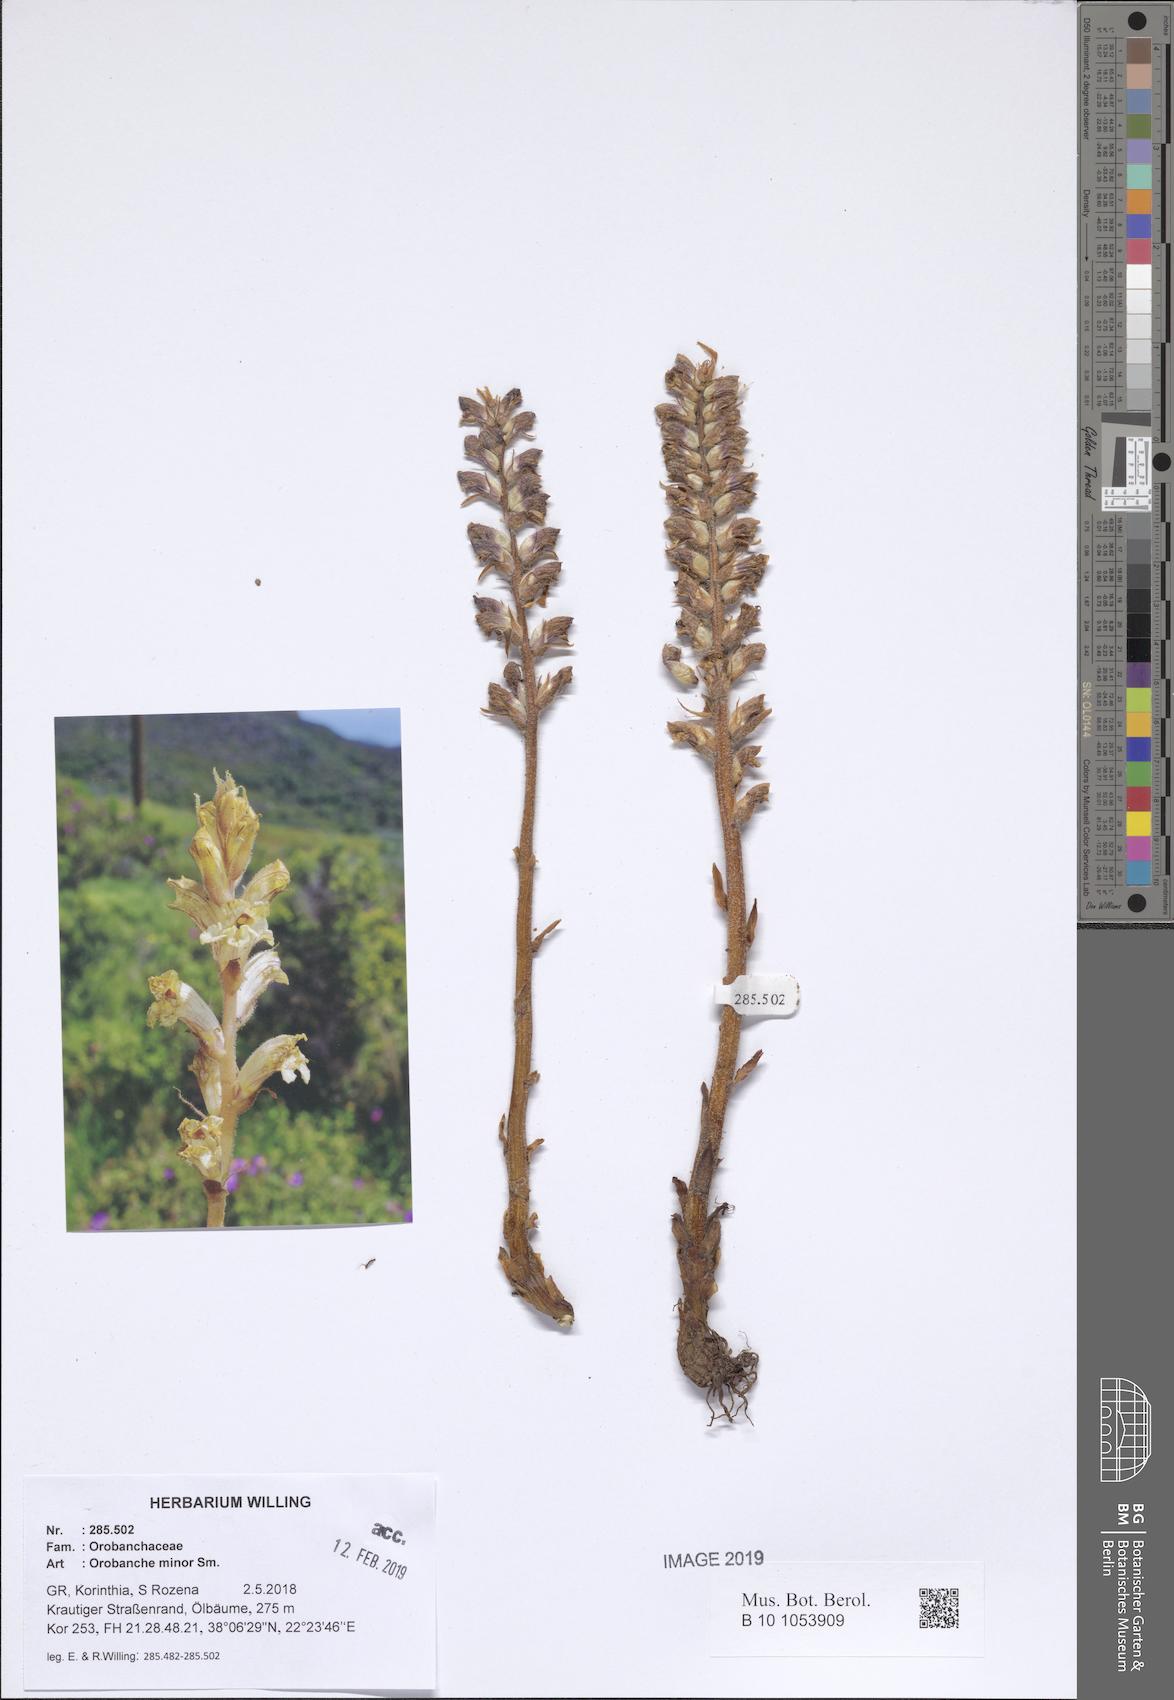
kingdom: Plantae
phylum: Tracheophyta
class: Magnoliopsida
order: Lamiales
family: Orobanchaceae
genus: Orobanche
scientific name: Orobanche pubescens
